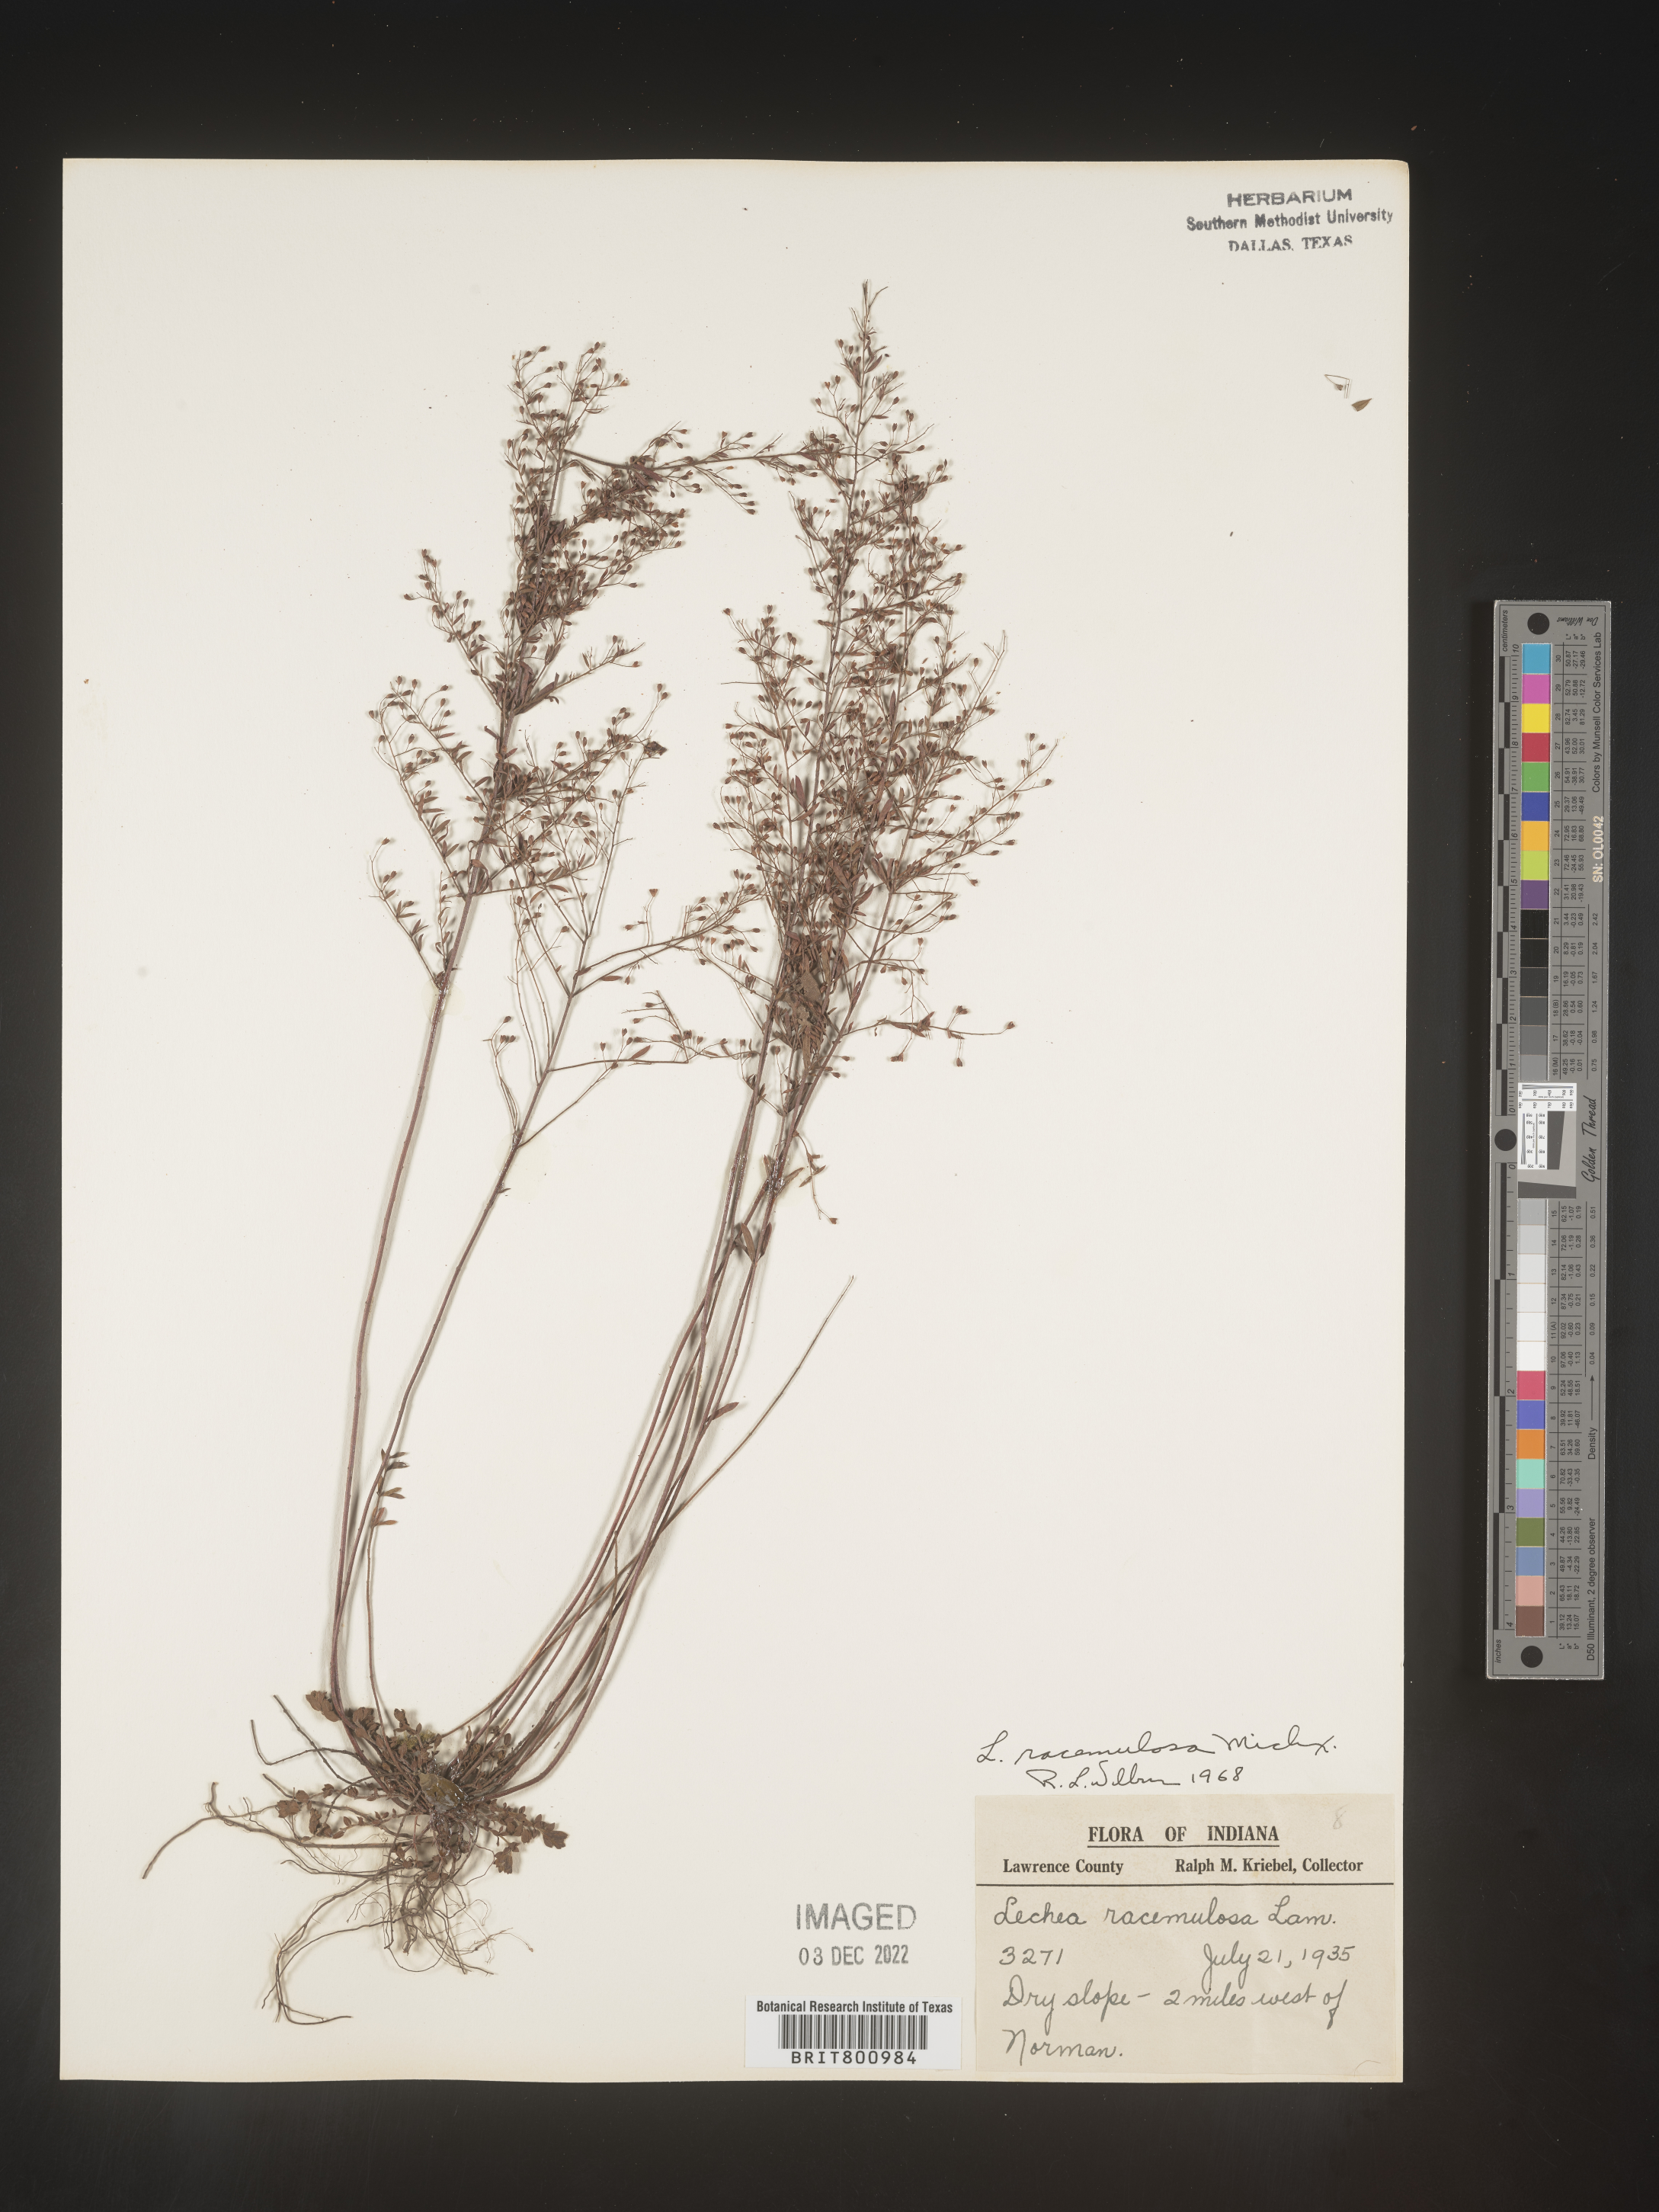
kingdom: Plantae
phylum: Tracheophyta
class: Magnoliopsida
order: Malvales
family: Cistaceae
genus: Lechea
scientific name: Lechea racemulosa
